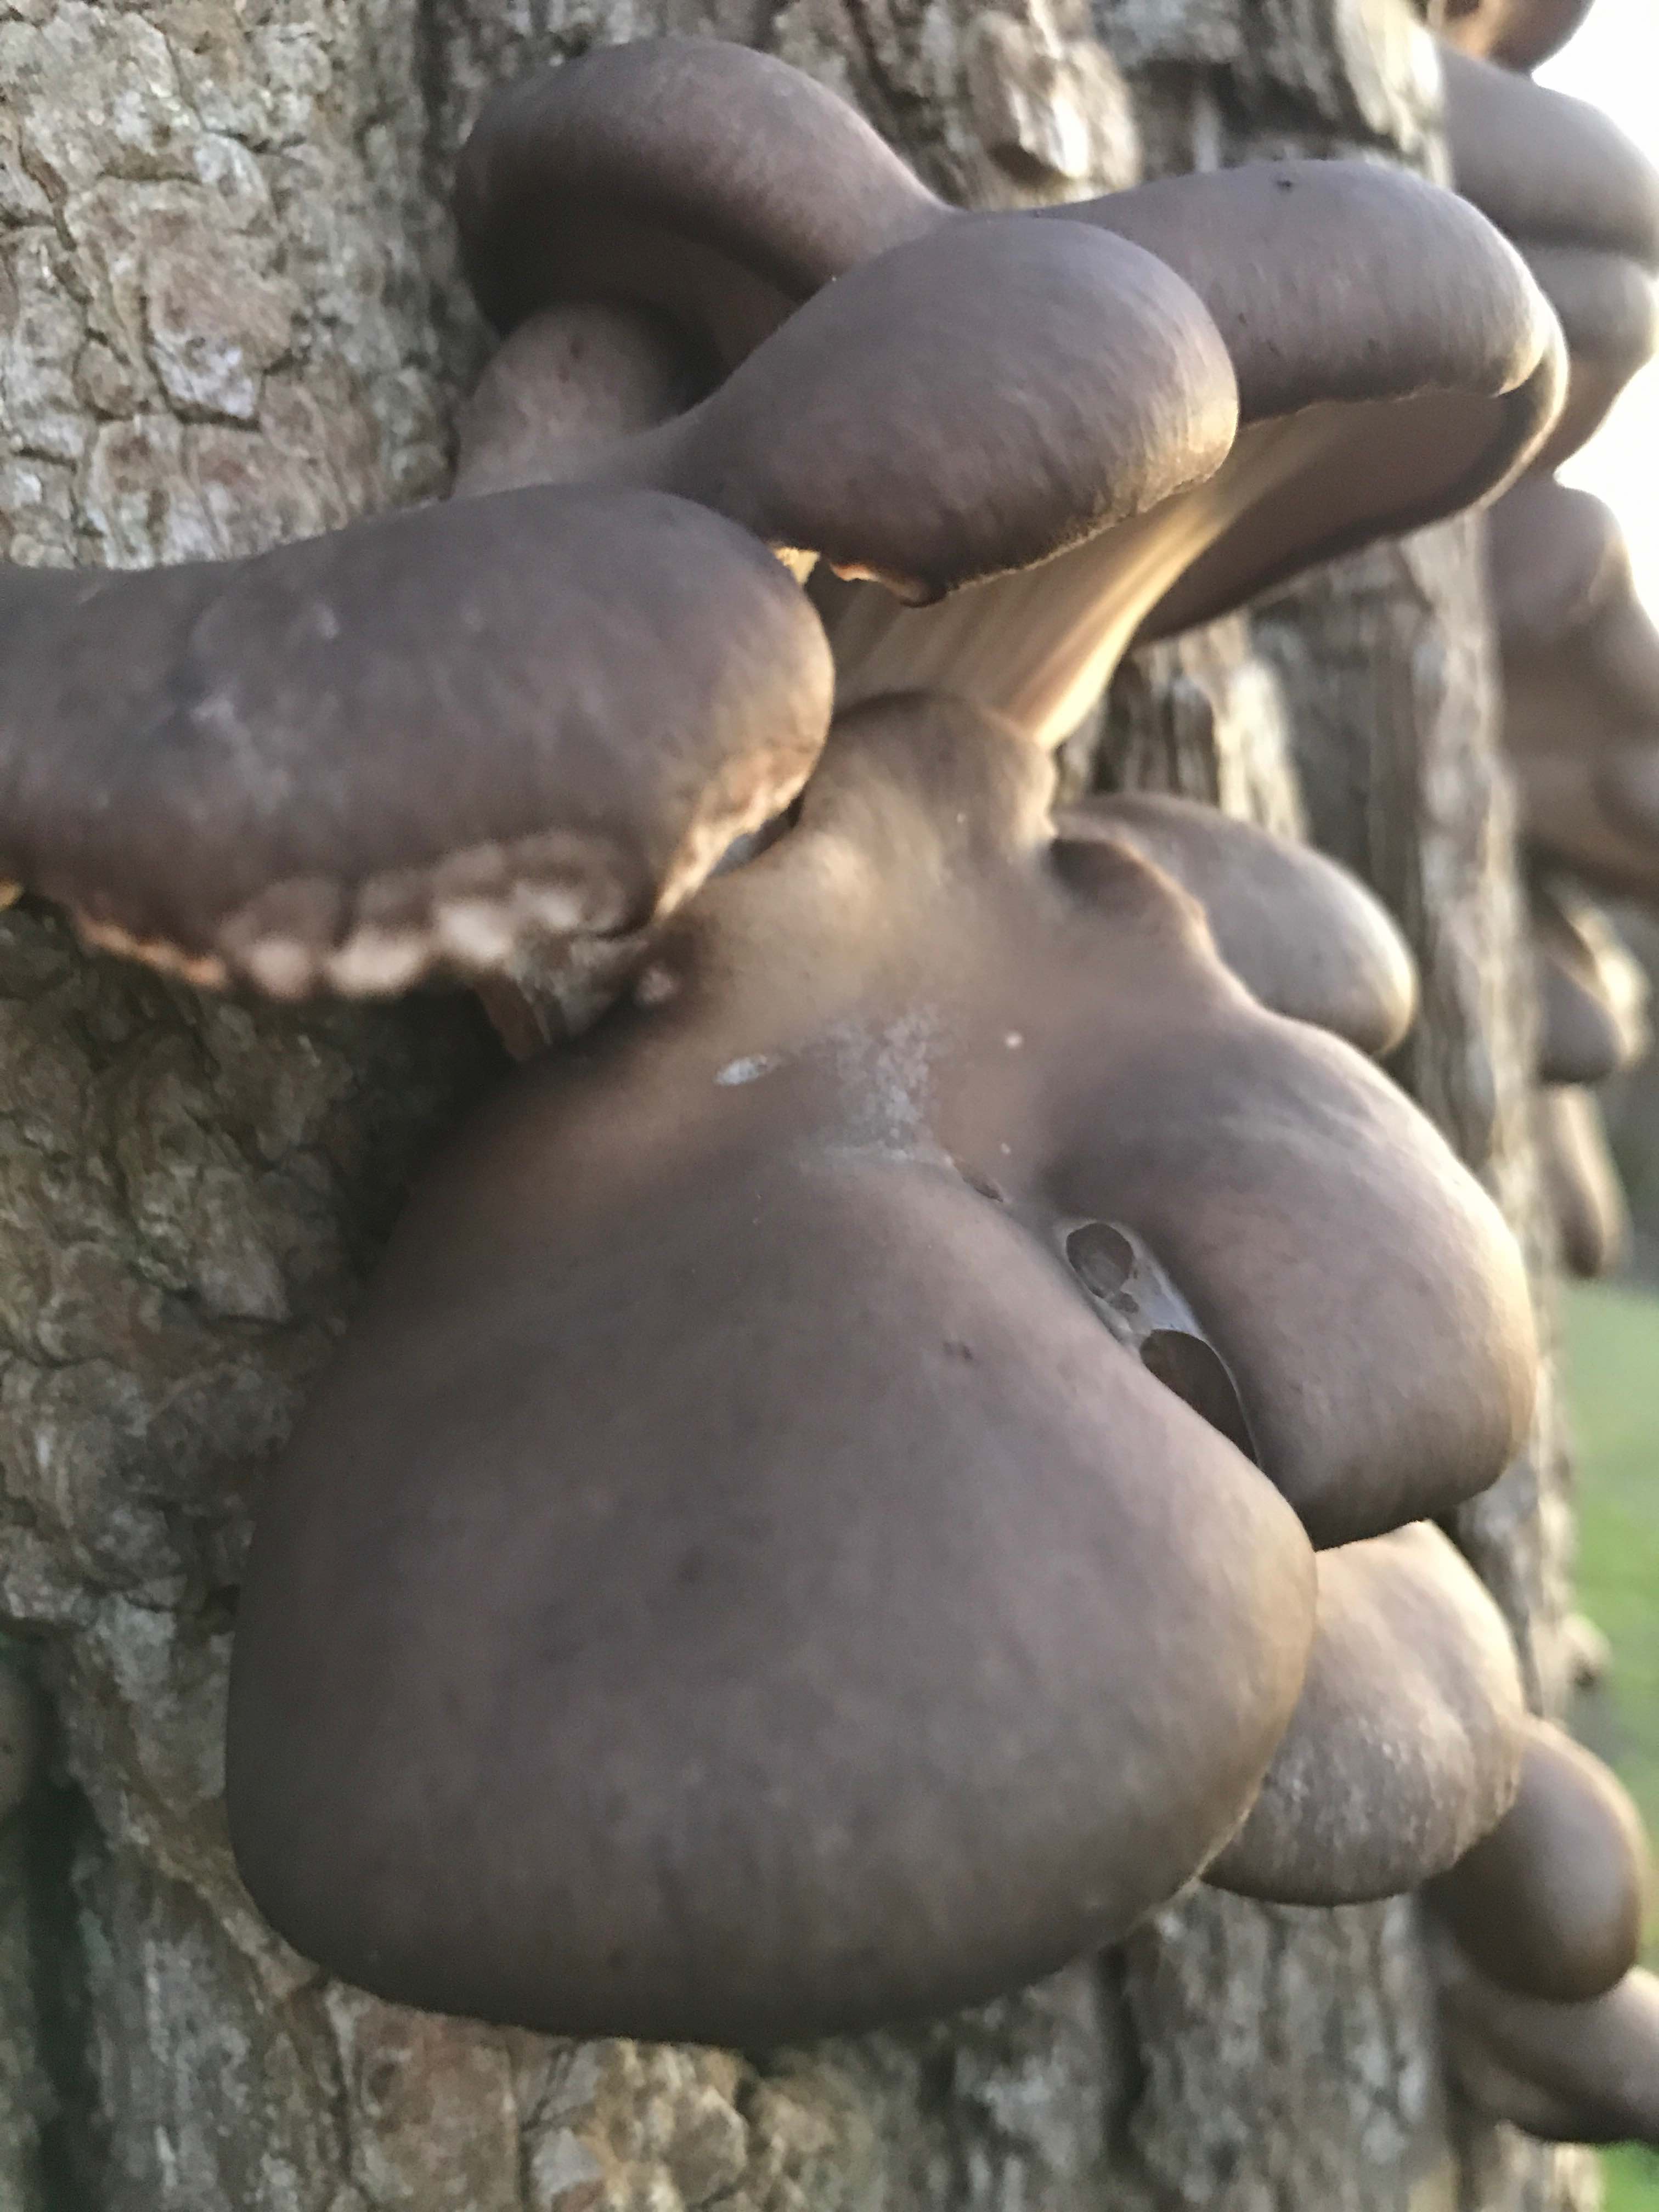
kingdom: Fungi
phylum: Basidiomycota
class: Agaricomycetes
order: Agaricales
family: Pleurotaceae
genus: Pleurotus
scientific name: Pleurotus ostreatus
